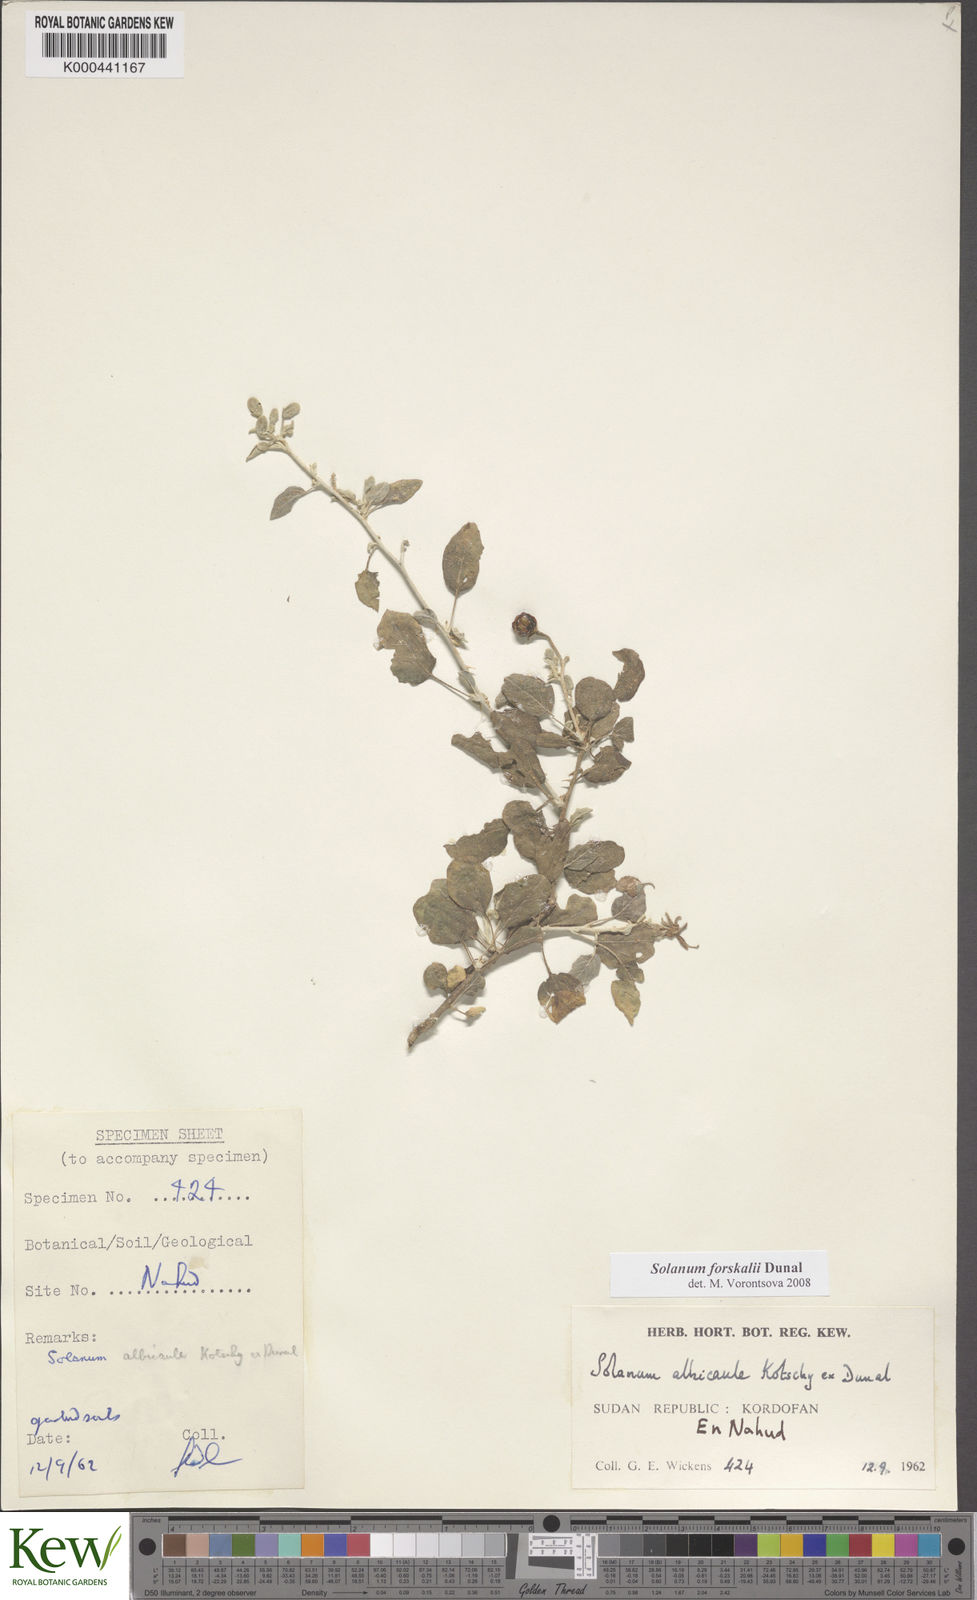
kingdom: Plantae
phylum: Tracheophyta
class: Magnoliopsida
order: Solanales
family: Solanaceae
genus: Solanum
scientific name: Solanum
